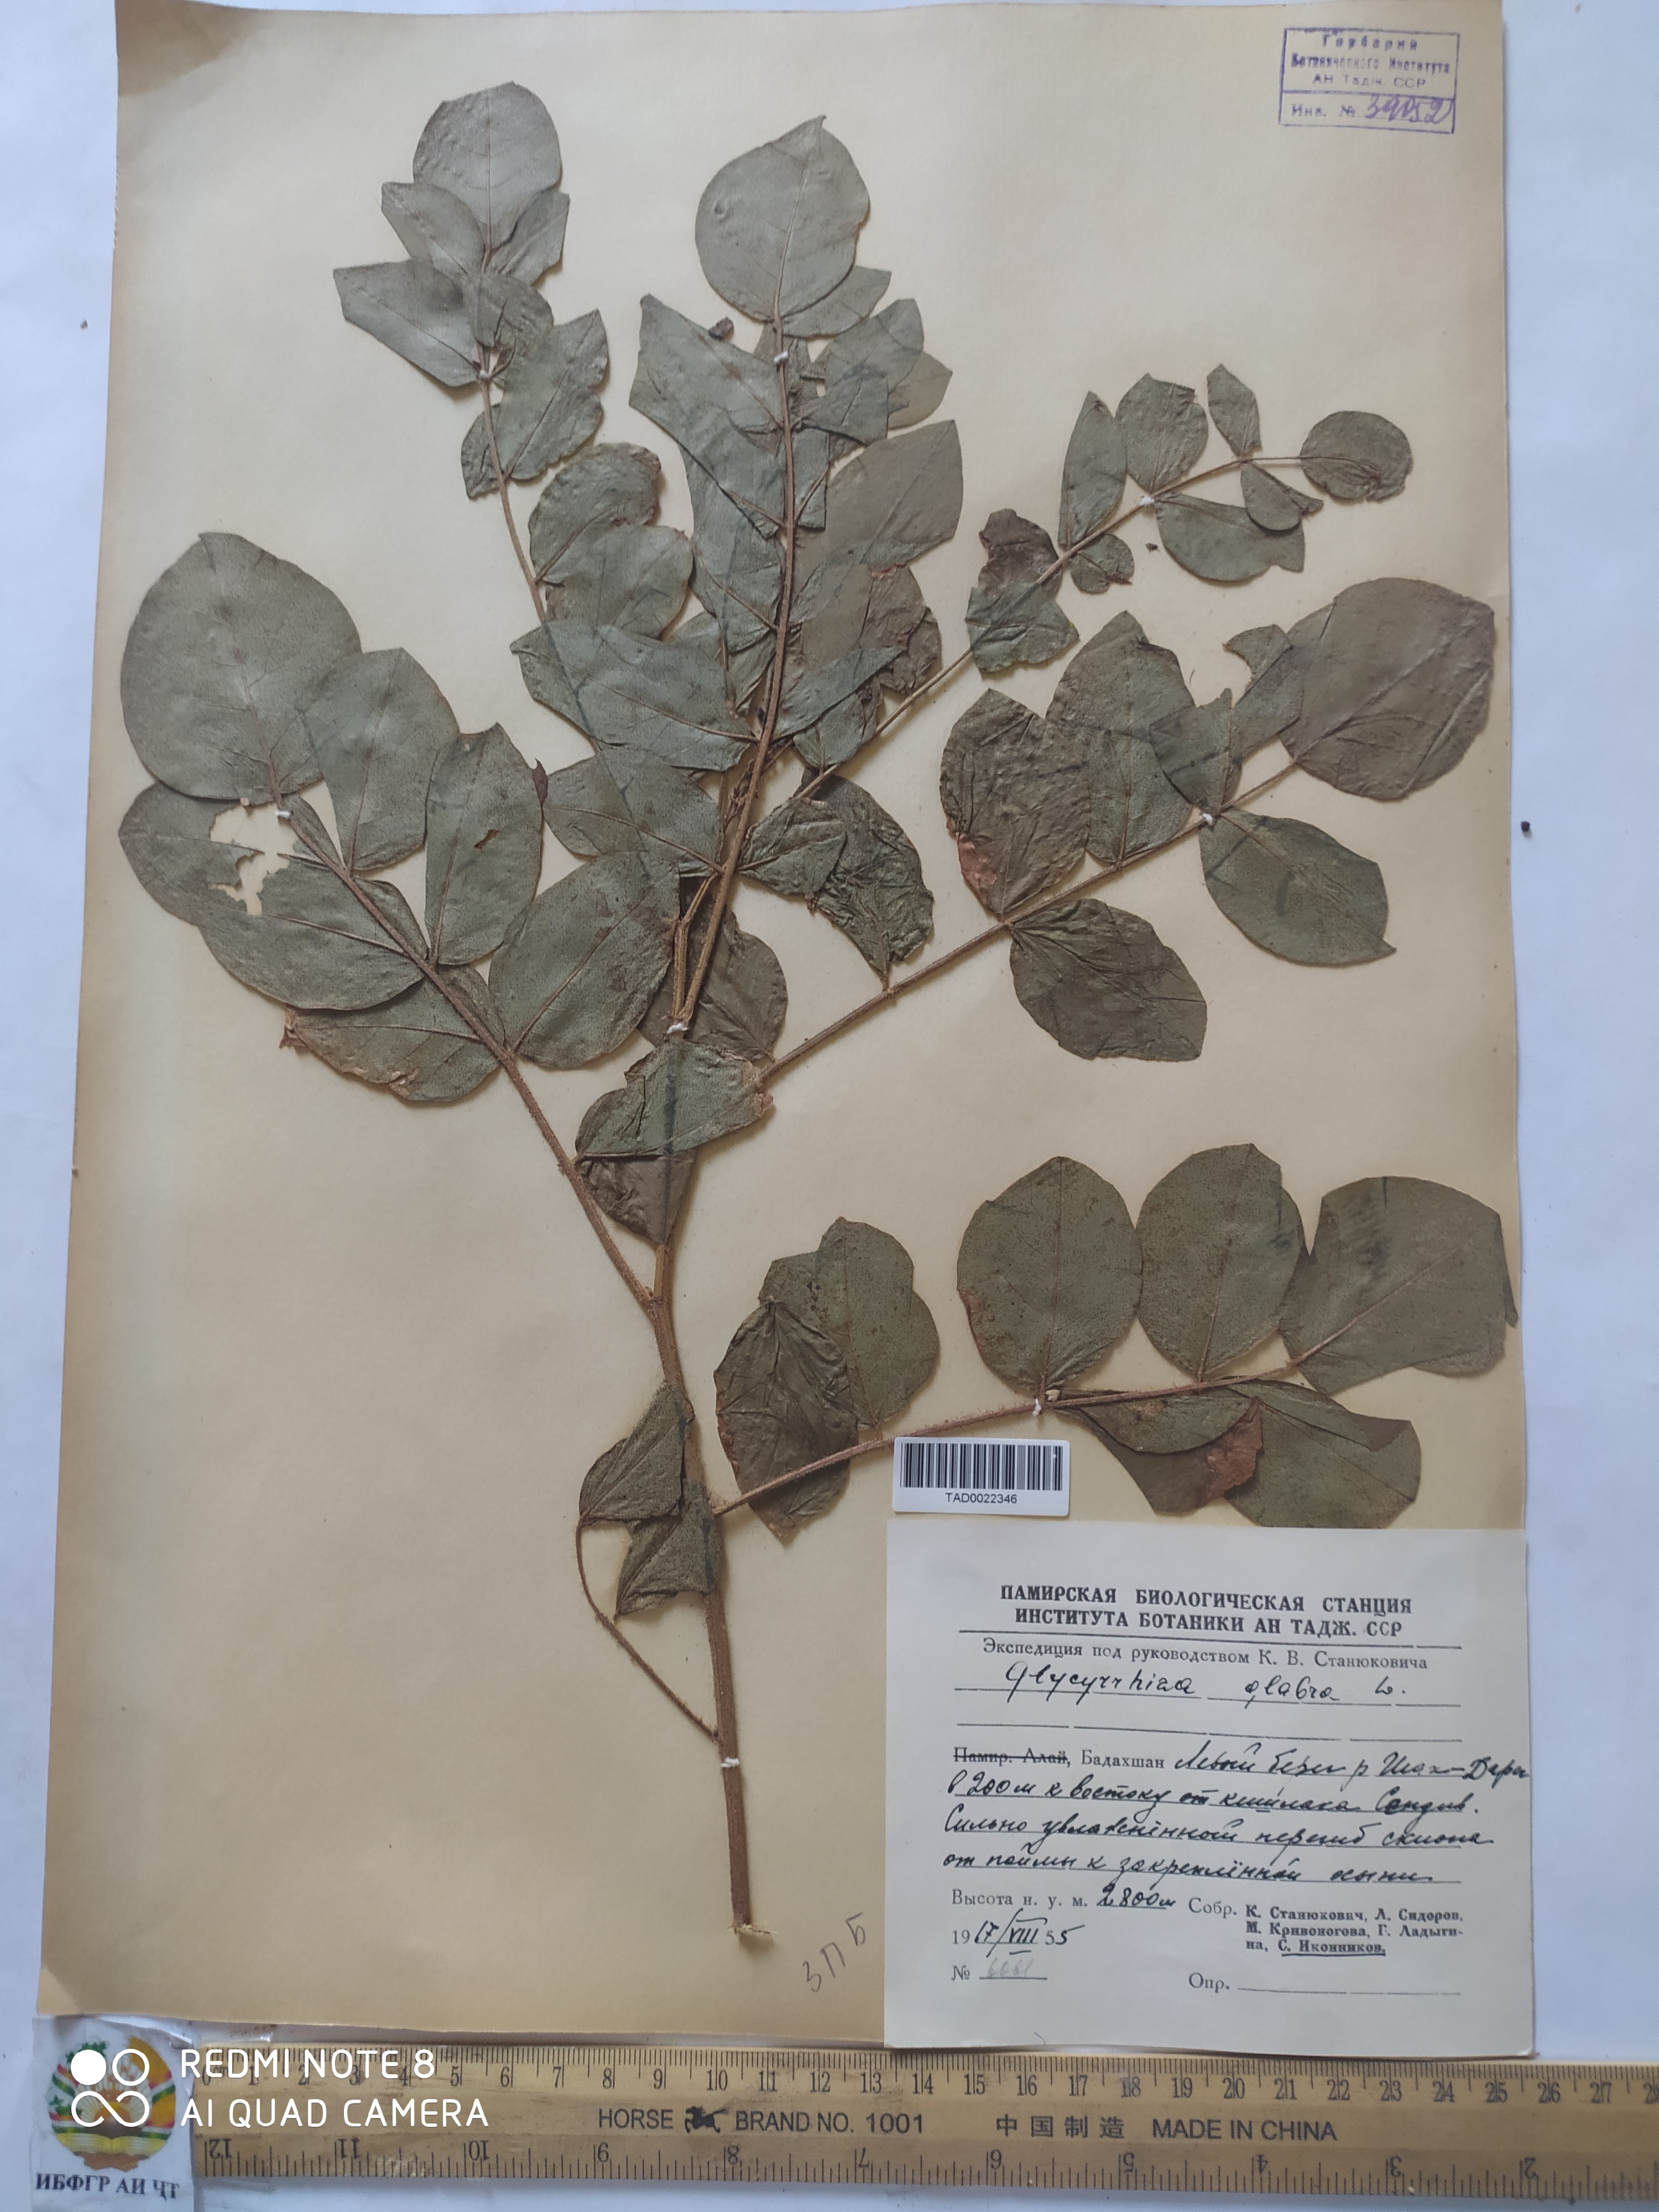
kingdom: Plantae
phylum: Tracheophyta
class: Magnoliopsida
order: Fabales
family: Fabaceae
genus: Glycyrrhiza
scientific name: Glycyrrhiza glabra
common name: Liquorice
